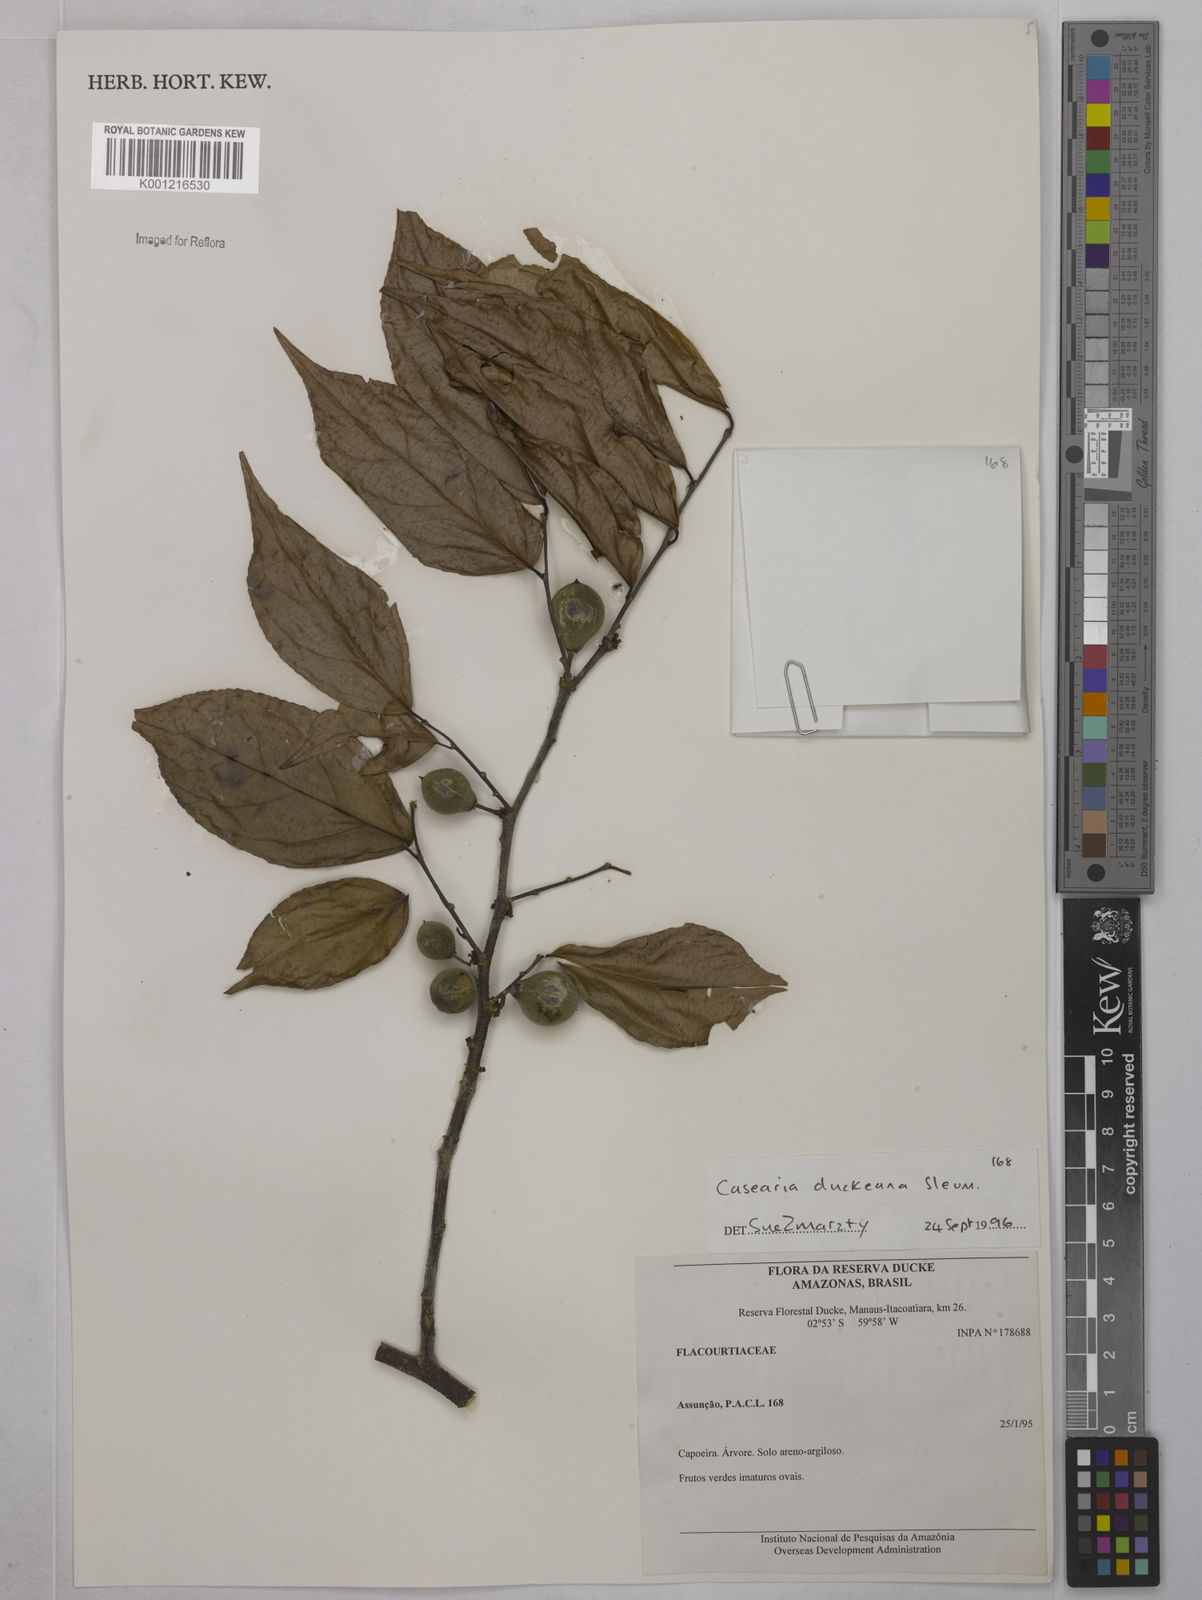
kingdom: Plantae
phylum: Tracheophyta
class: Magnoliopsida
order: Malpighiales
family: Salicaceae
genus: Casearia
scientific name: Casearia duckeana
